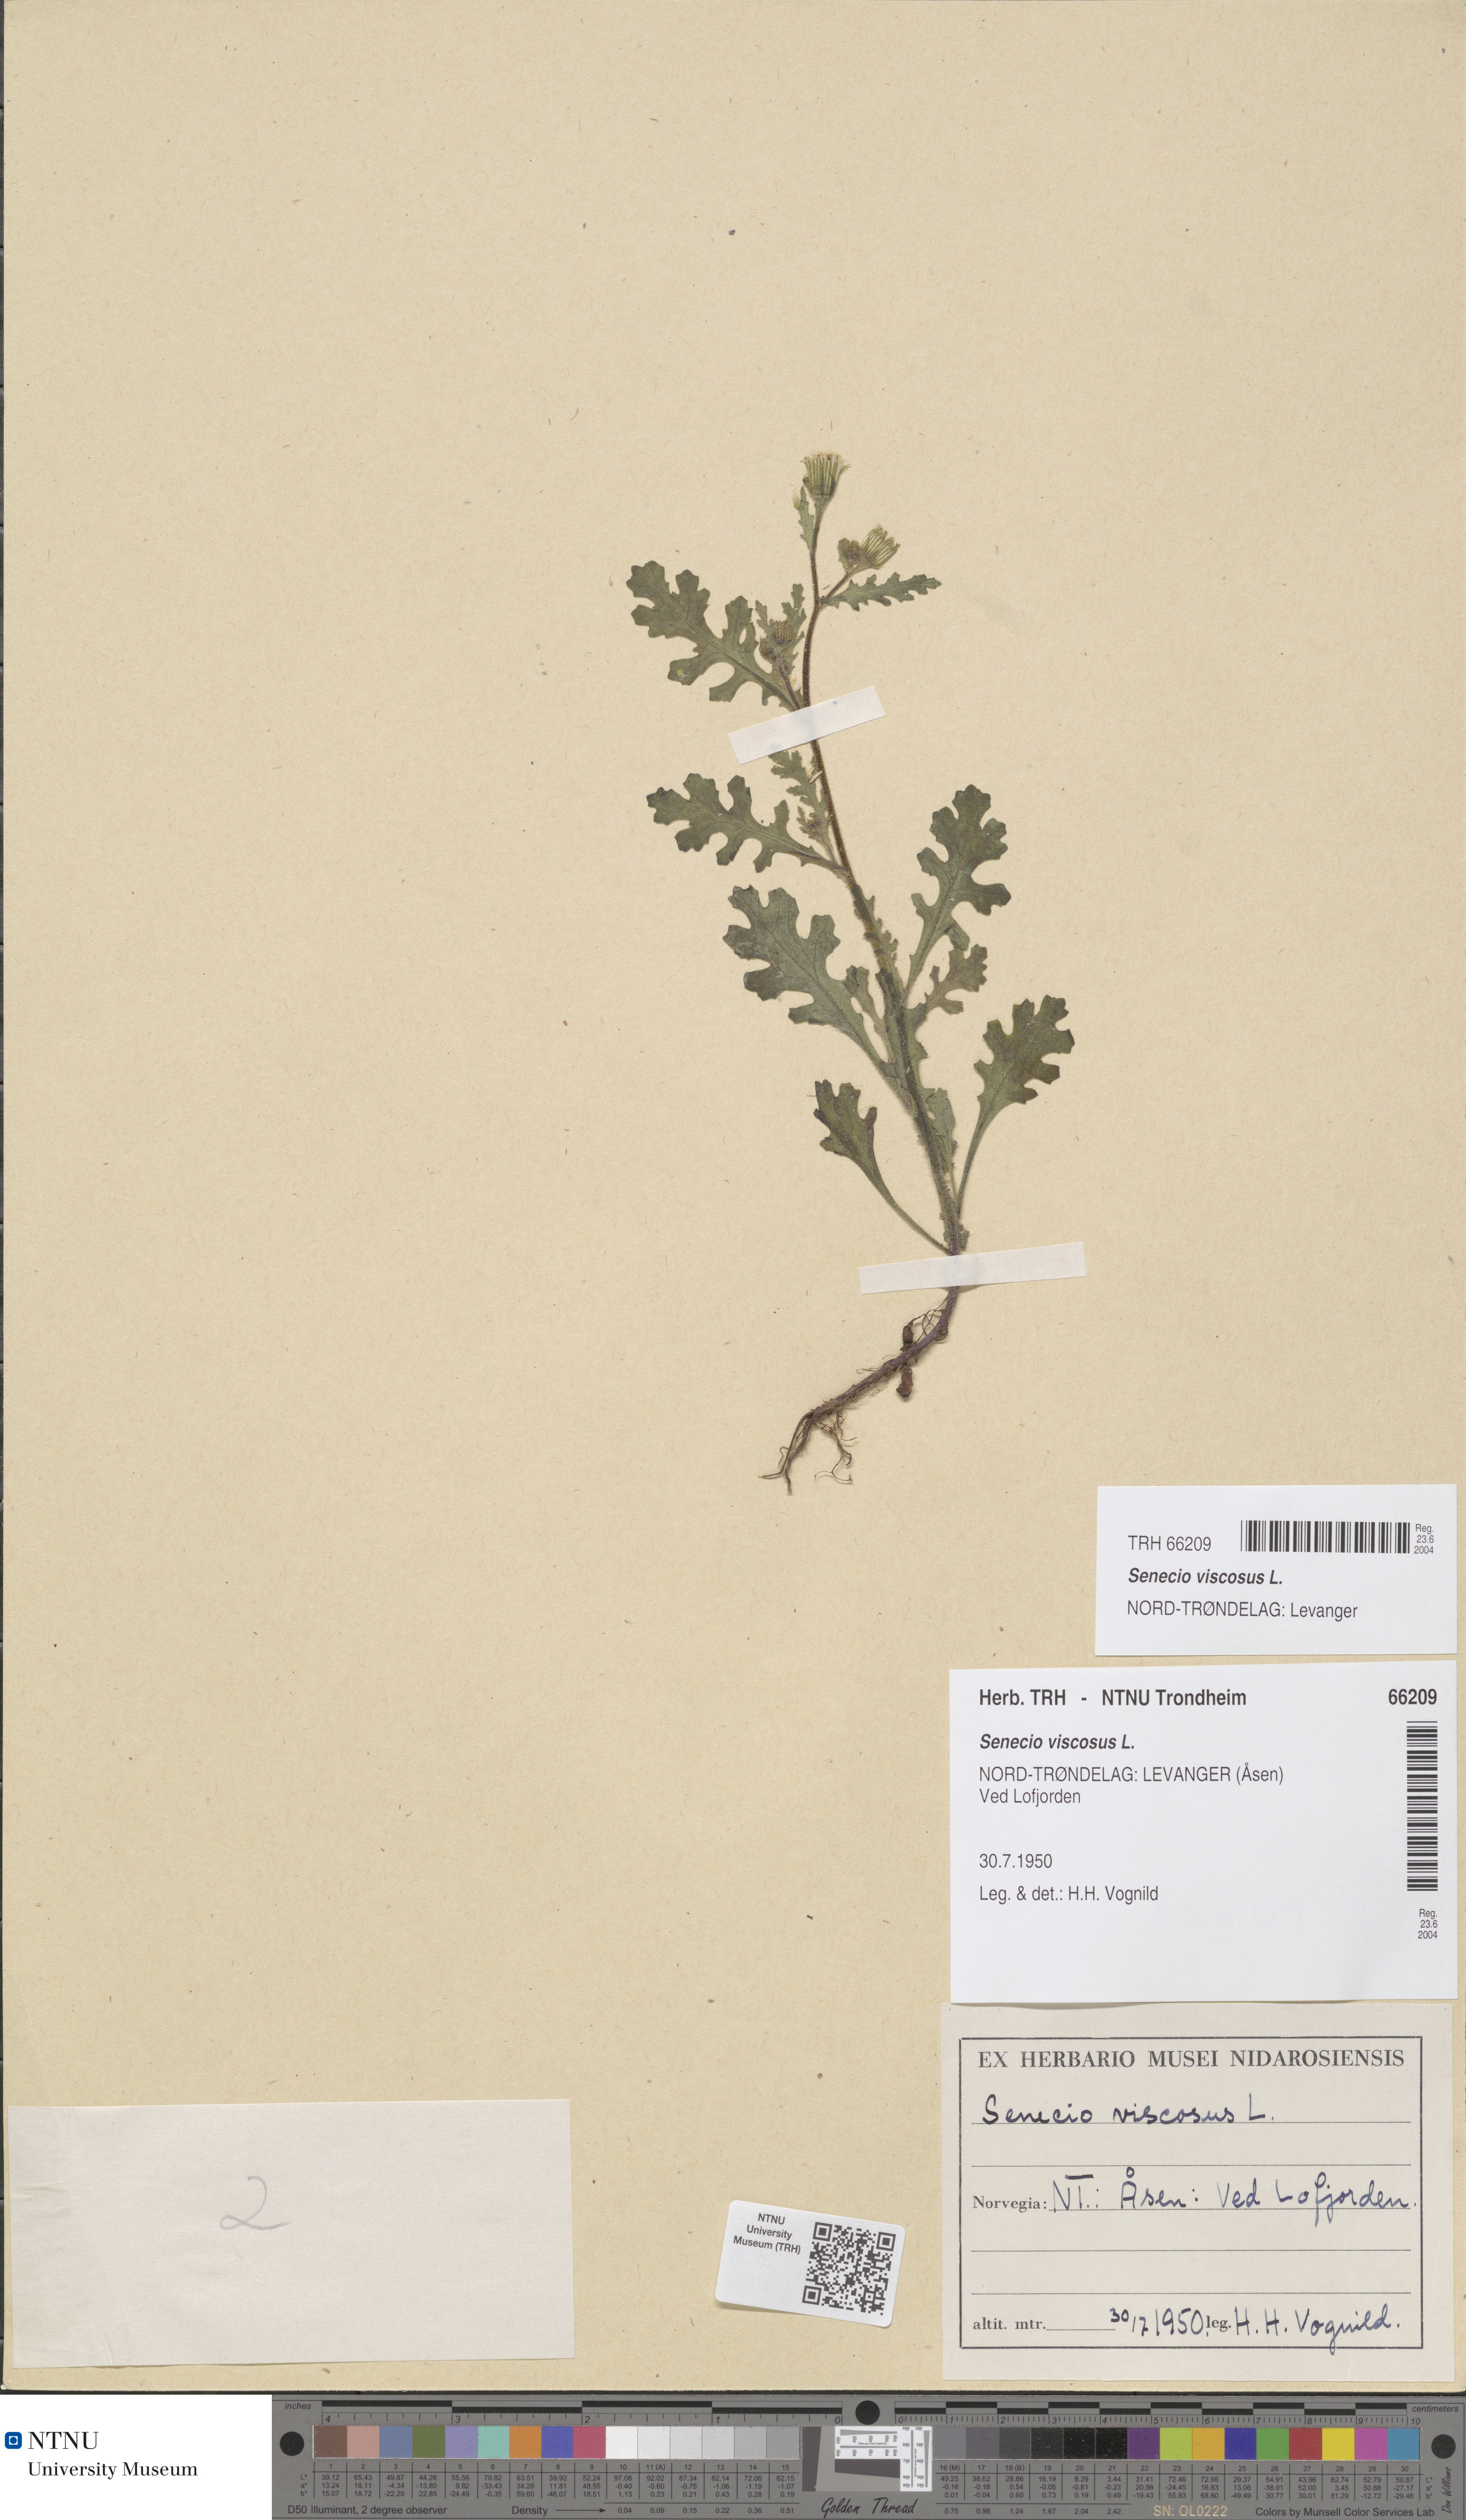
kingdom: Plantae
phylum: Tracheophyta
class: Magnoliopsida
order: Asterales
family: Asteraceae
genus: Senecio
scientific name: Senecio viscosus
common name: Sticky groundsel
